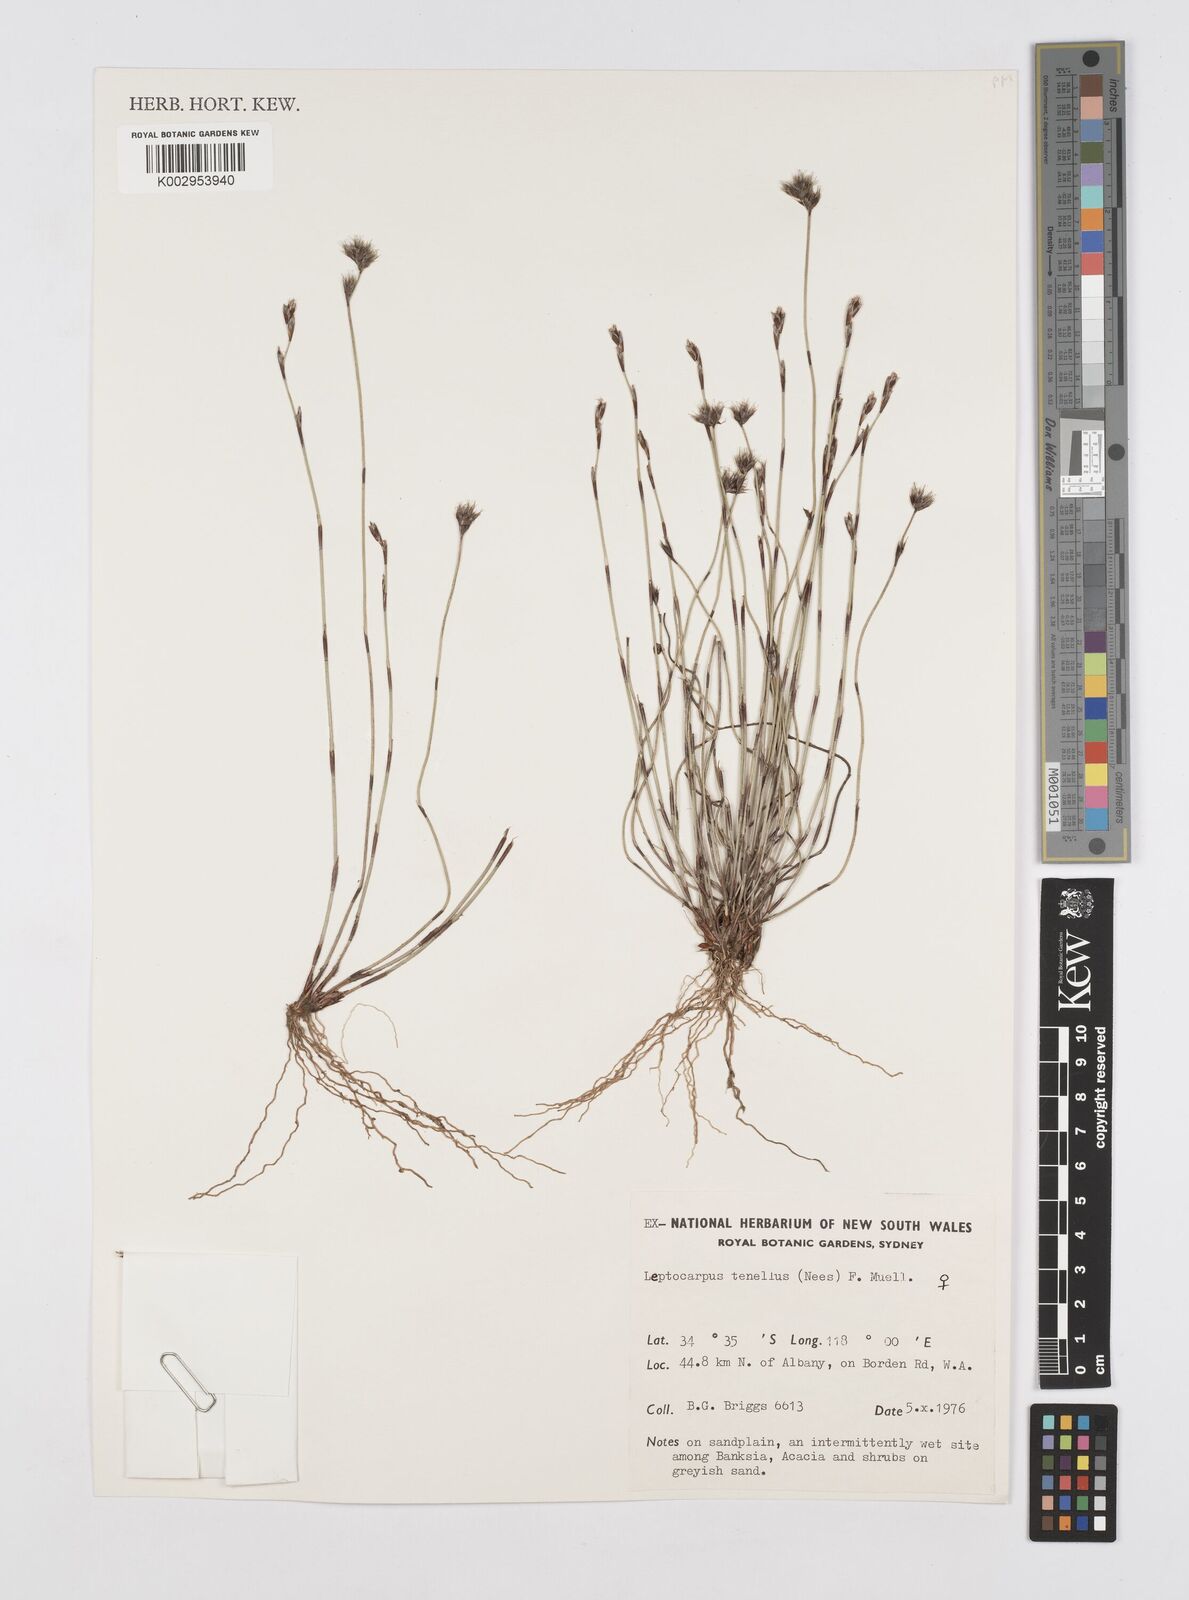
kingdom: Plantae
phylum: Tracheophyta
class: Liliopsida
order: Poales
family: Restionaceae
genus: Chaetanthus
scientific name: Chaetanthus tenellus
